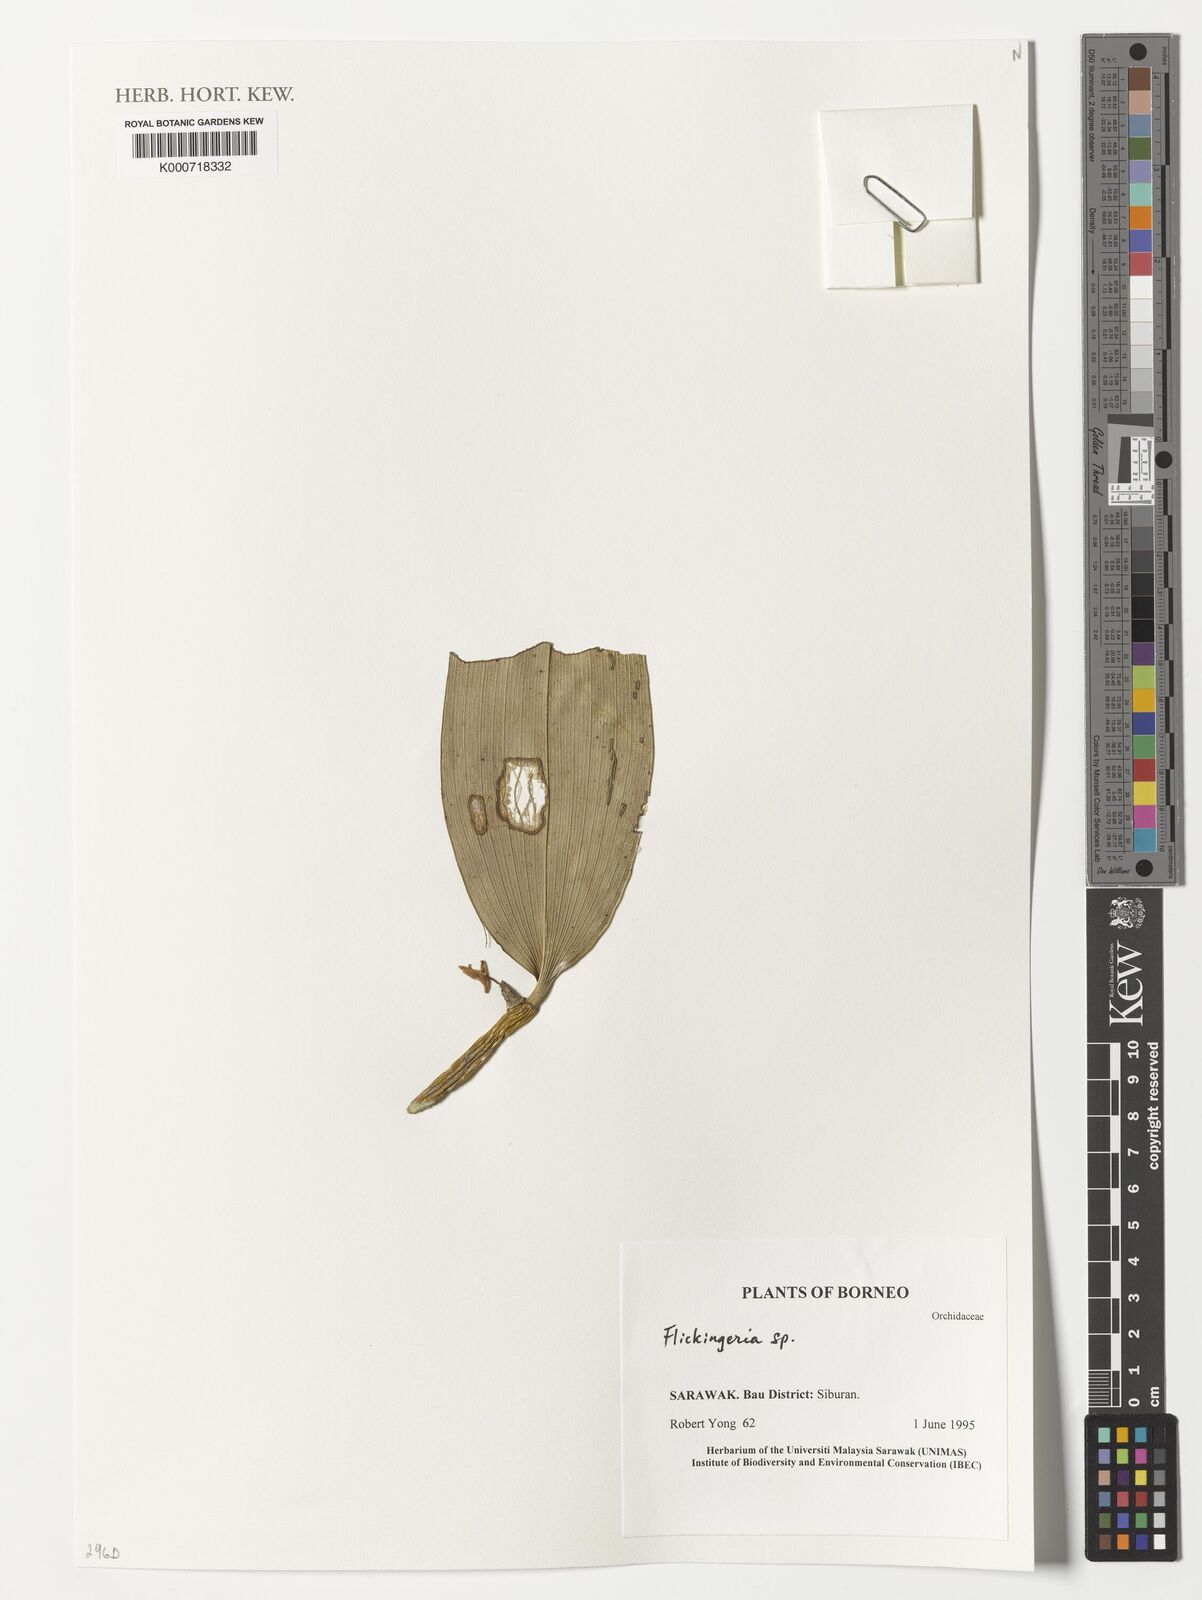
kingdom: Plantae
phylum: Tracheophyta
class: Liliopsida
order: Asparagales
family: Orchidaceae
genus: Dendrobium
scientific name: Dendrobium
